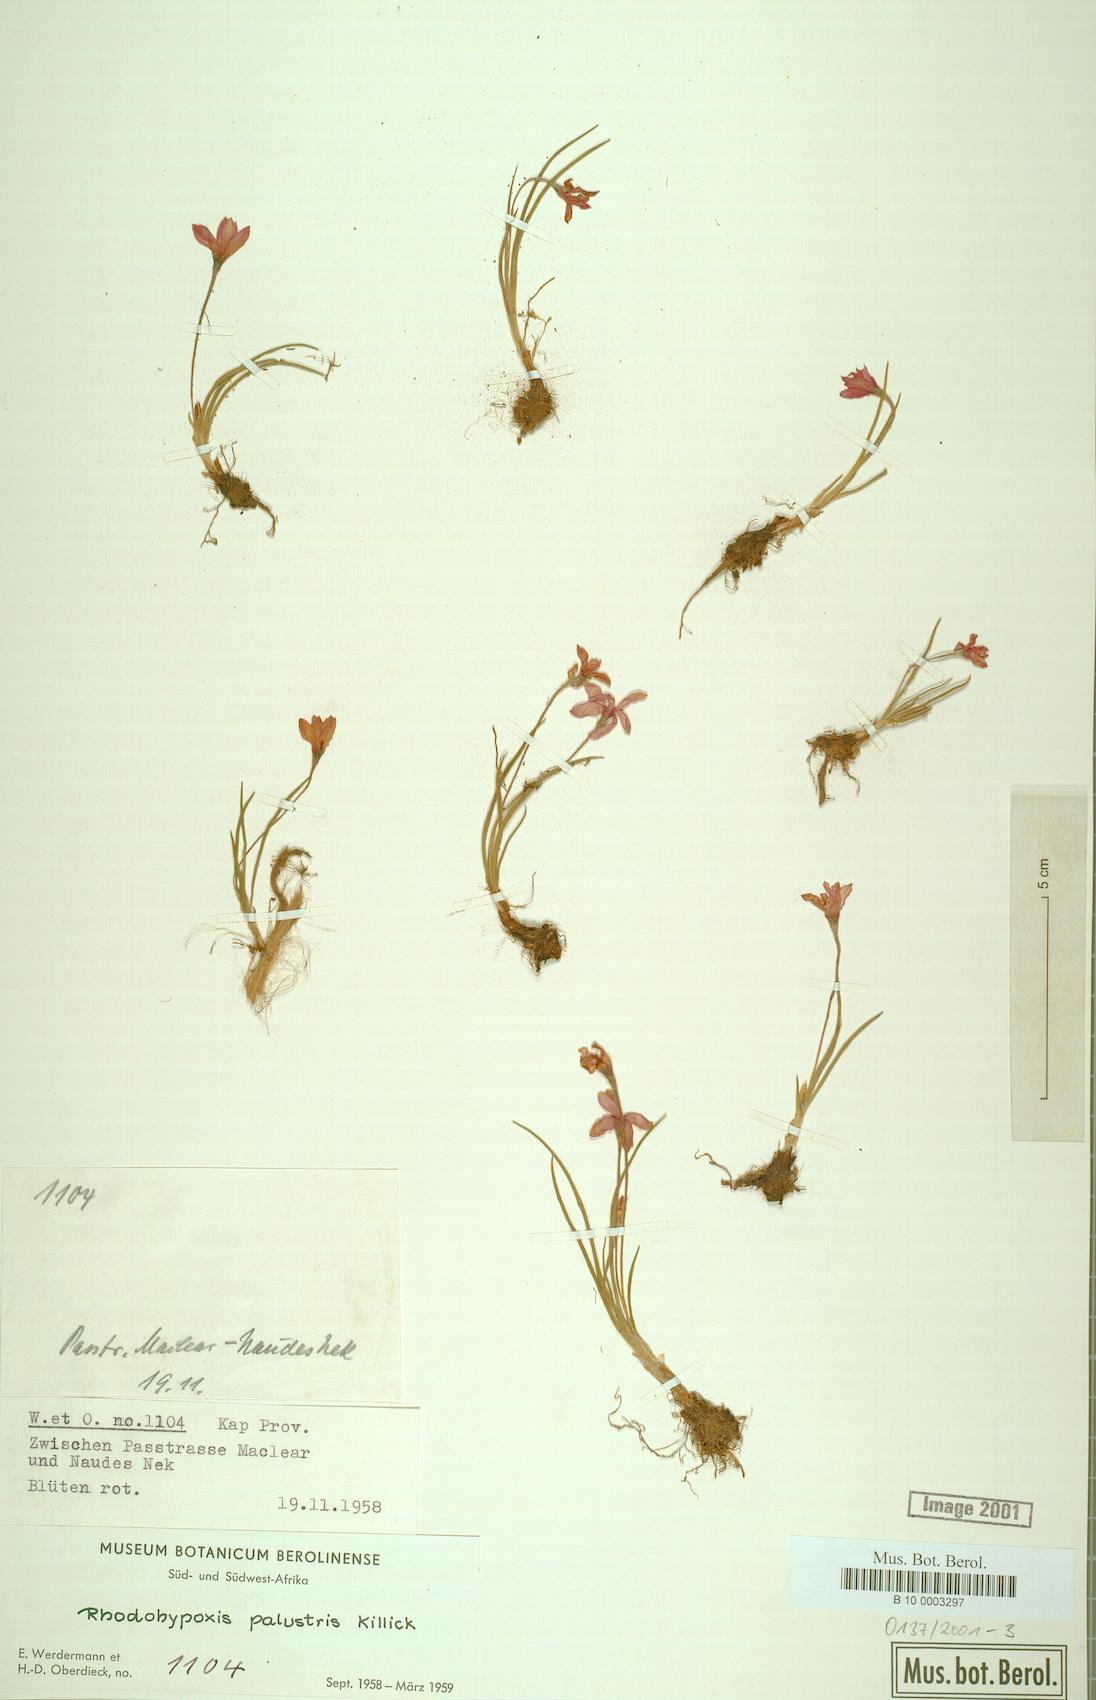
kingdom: Plantae
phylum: Tracheophyta
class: Liliopsida
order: Asparagales
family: Hypoxidaceae
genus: Hypoxis
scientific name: Hypoxis milloides
